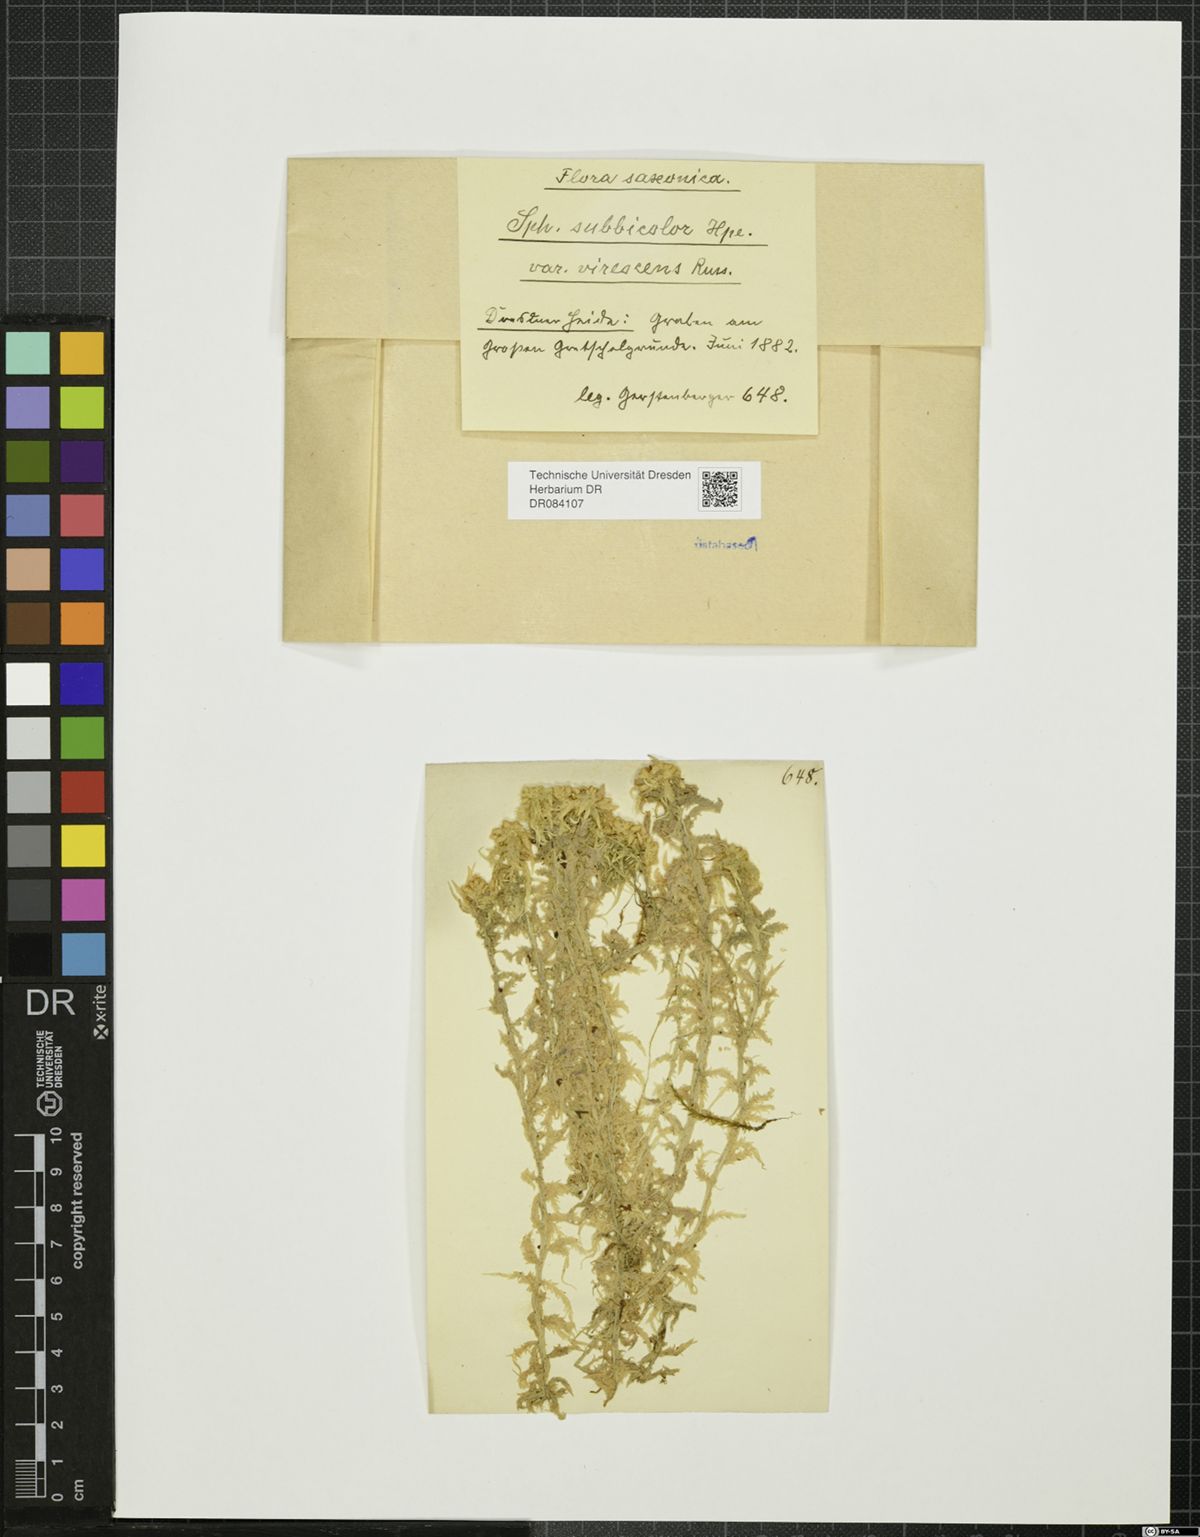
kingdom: Plantae
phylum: Bryophyta
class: Sphagnopsida
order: Sphagnales
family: Sphagnaceae
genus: Sphagnum
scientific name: Sphagnum
